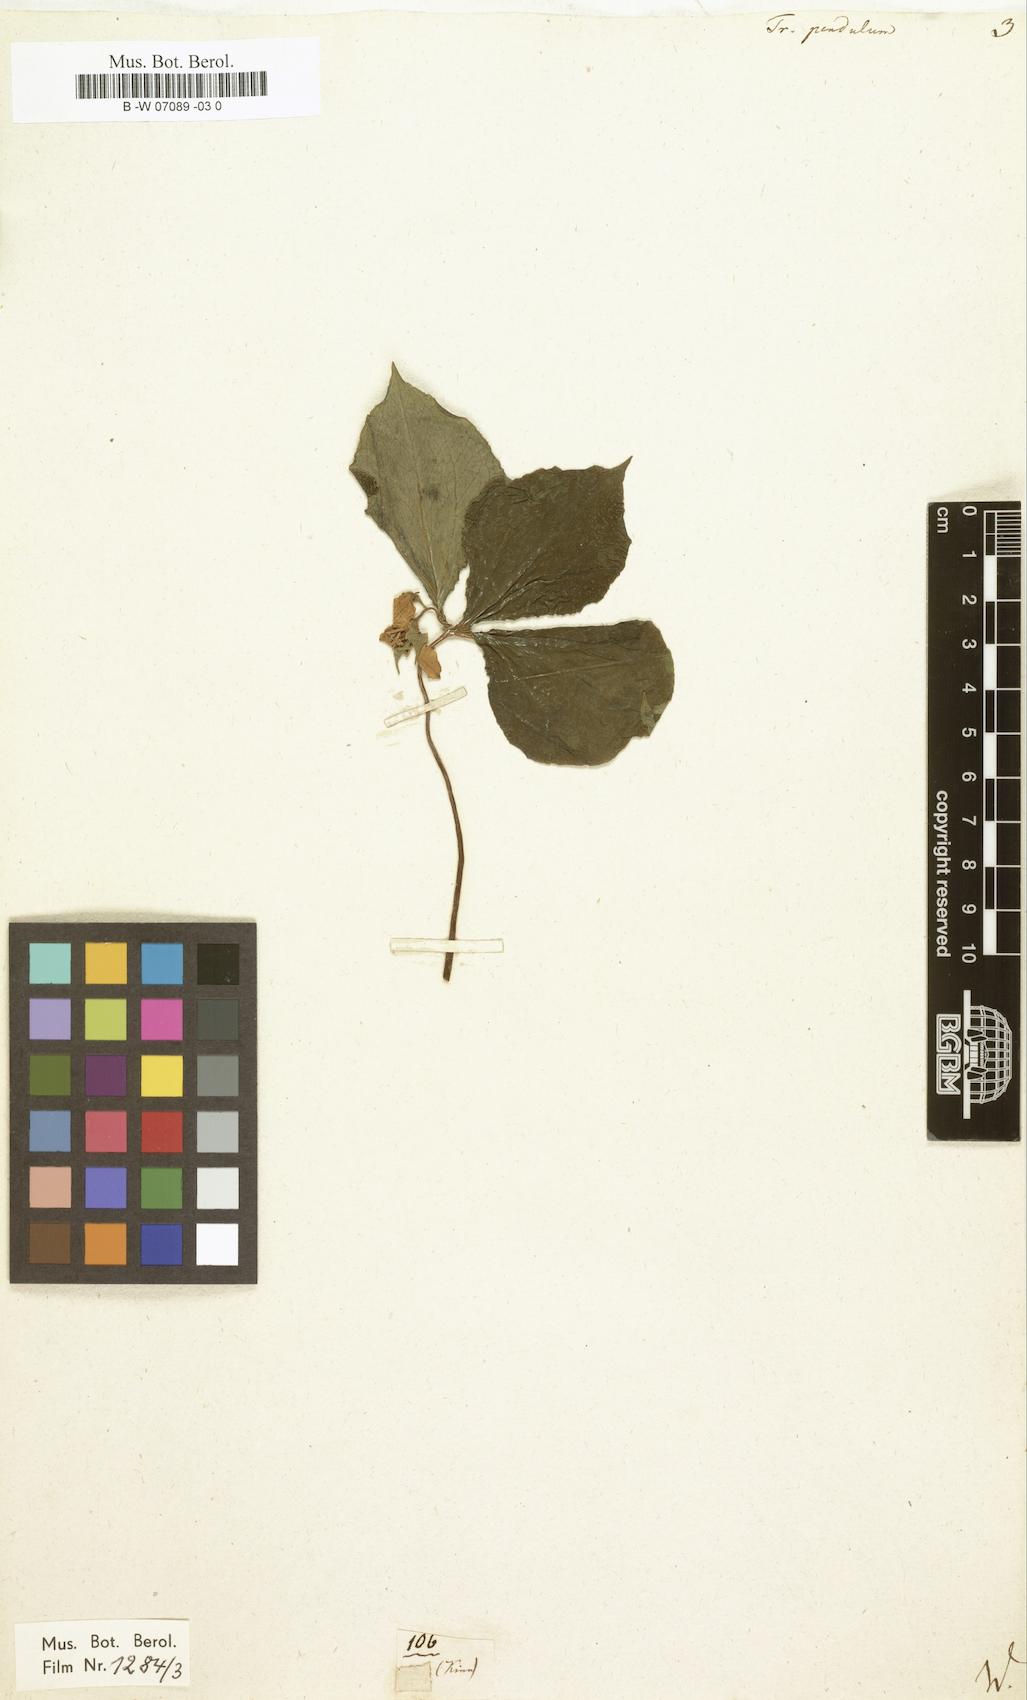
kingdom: Plantae
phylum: Tracheophyta
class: Liliopsida
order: Liliales
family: Melanthiaceae
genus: Trillium
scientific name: Trillium erectum
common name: Purple trillium
